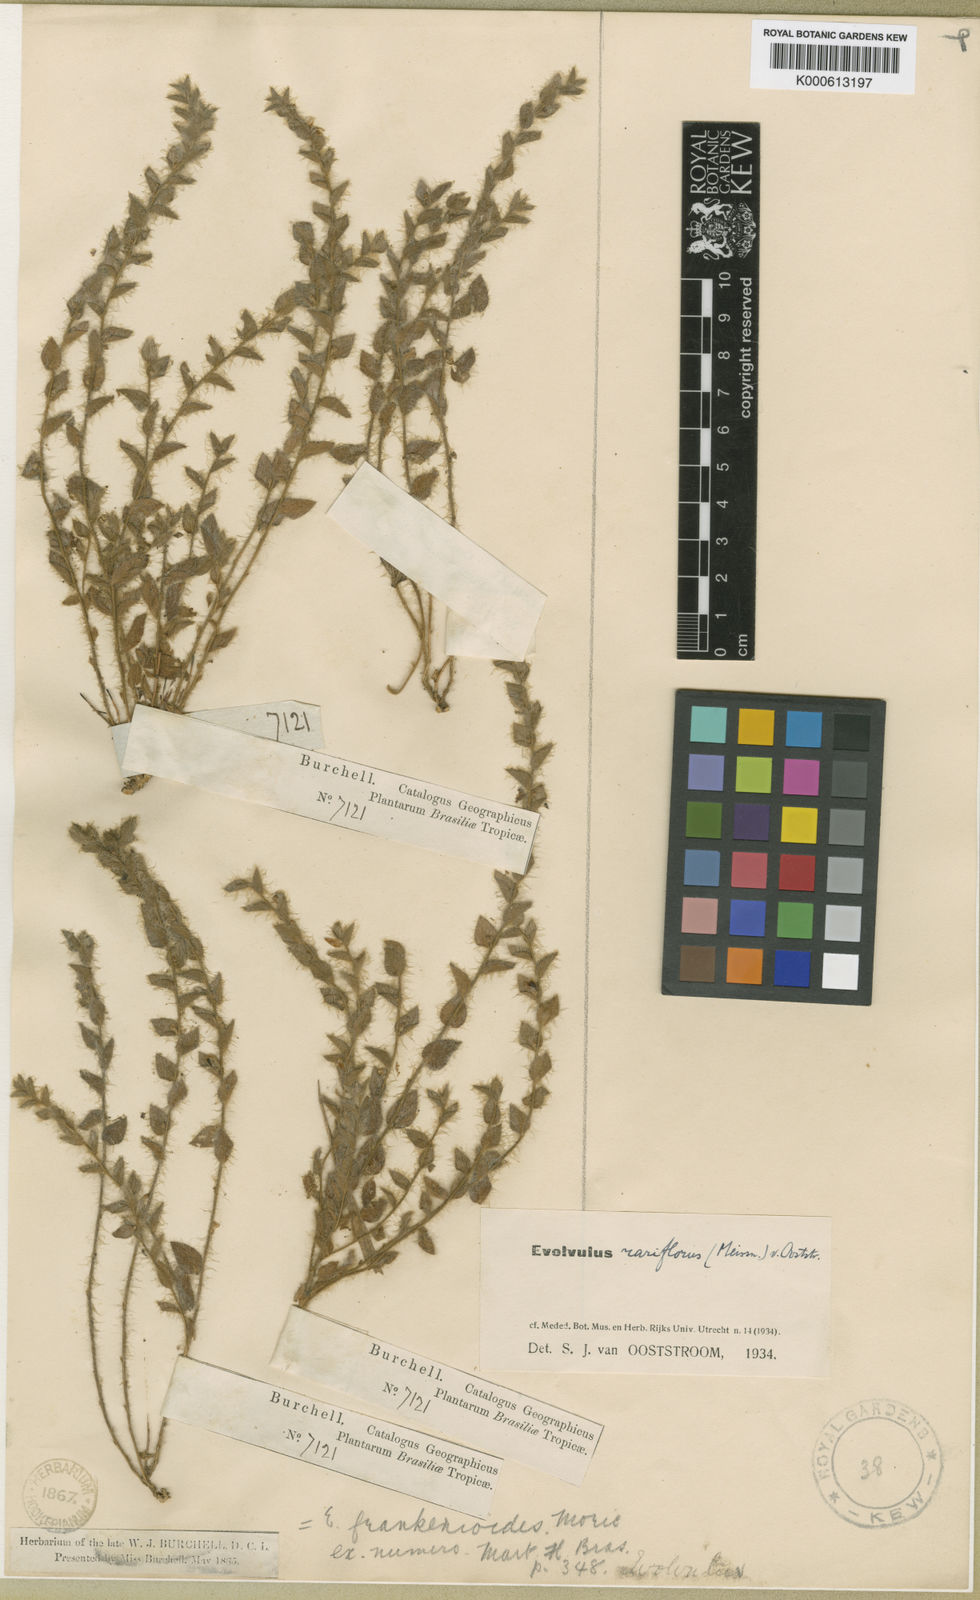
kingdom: Plantae
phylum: Tracheophyta
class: Magnoliopsida
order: Solanales
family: Convolvulaceae
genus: Evolvulus
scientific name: Evolvulus rariflorus
